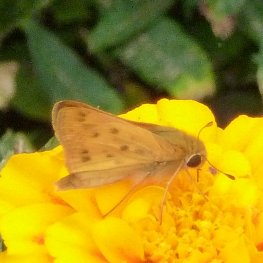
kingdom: Animalia
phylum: Arthropoda
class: Insecta
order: Lepidoptera
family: Hesperiidae
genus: Hylephila
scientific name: Hylephila phyleus
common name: Fiery Skipper
